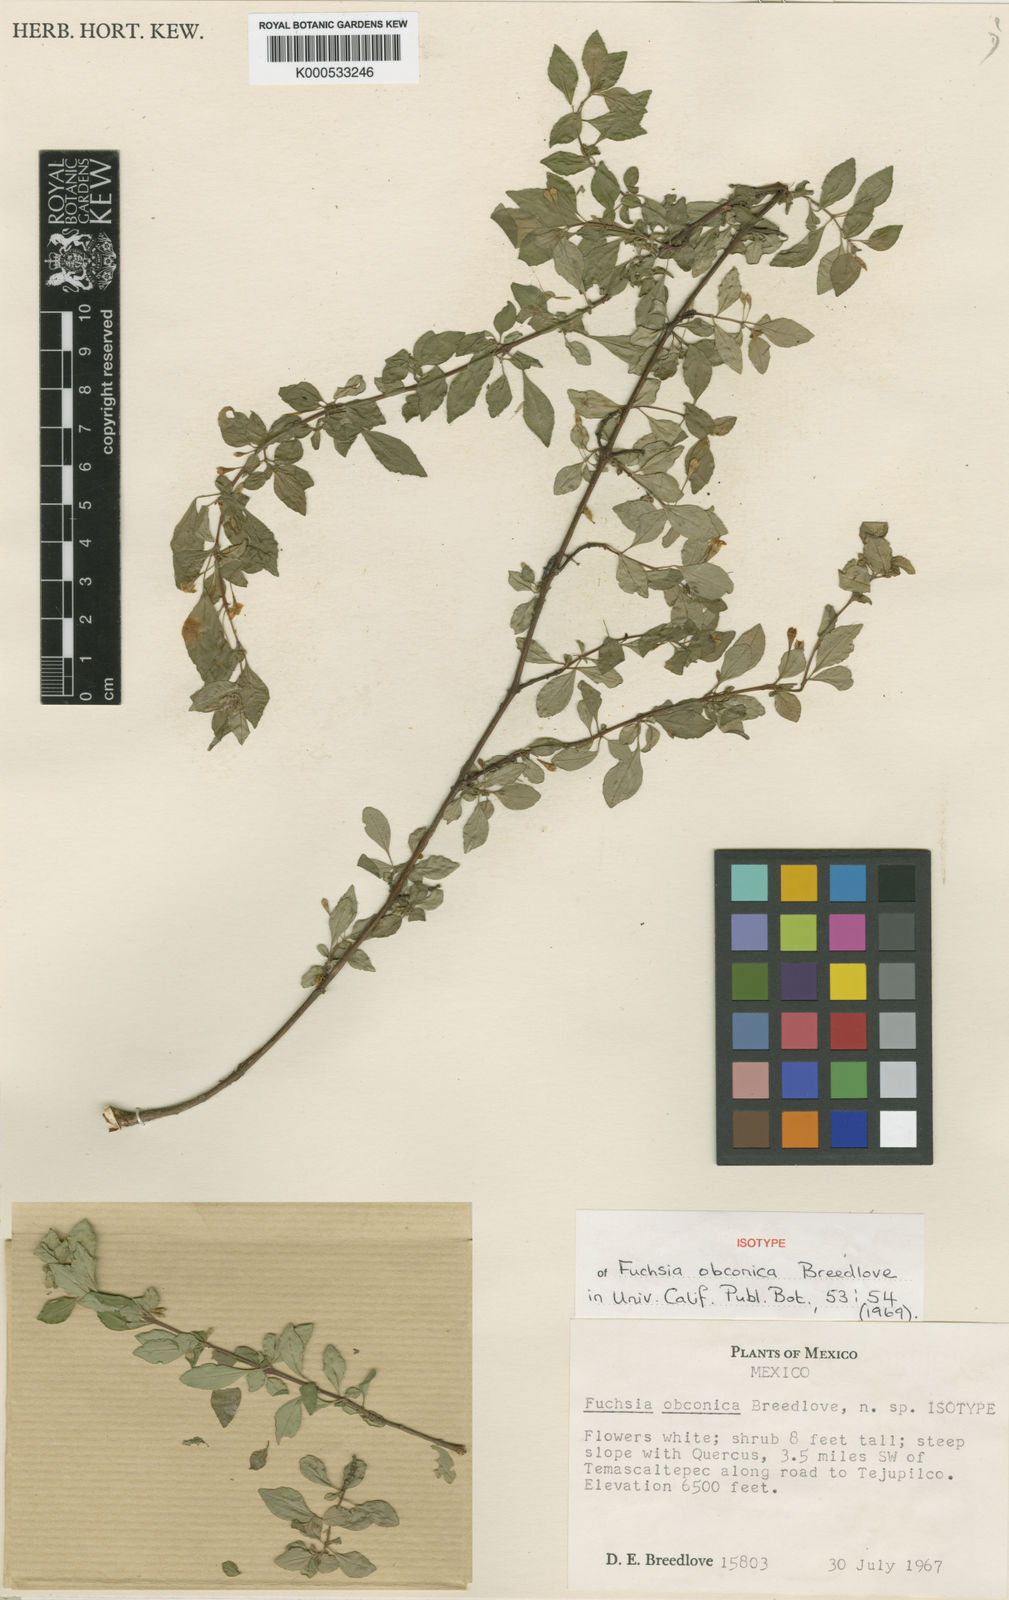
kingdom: Plantae
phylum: Tracheophyta
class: Magnoliopsida
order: Myrtales
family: Onagraceae
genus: Fuchsia
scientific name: Fuchsia obconica
